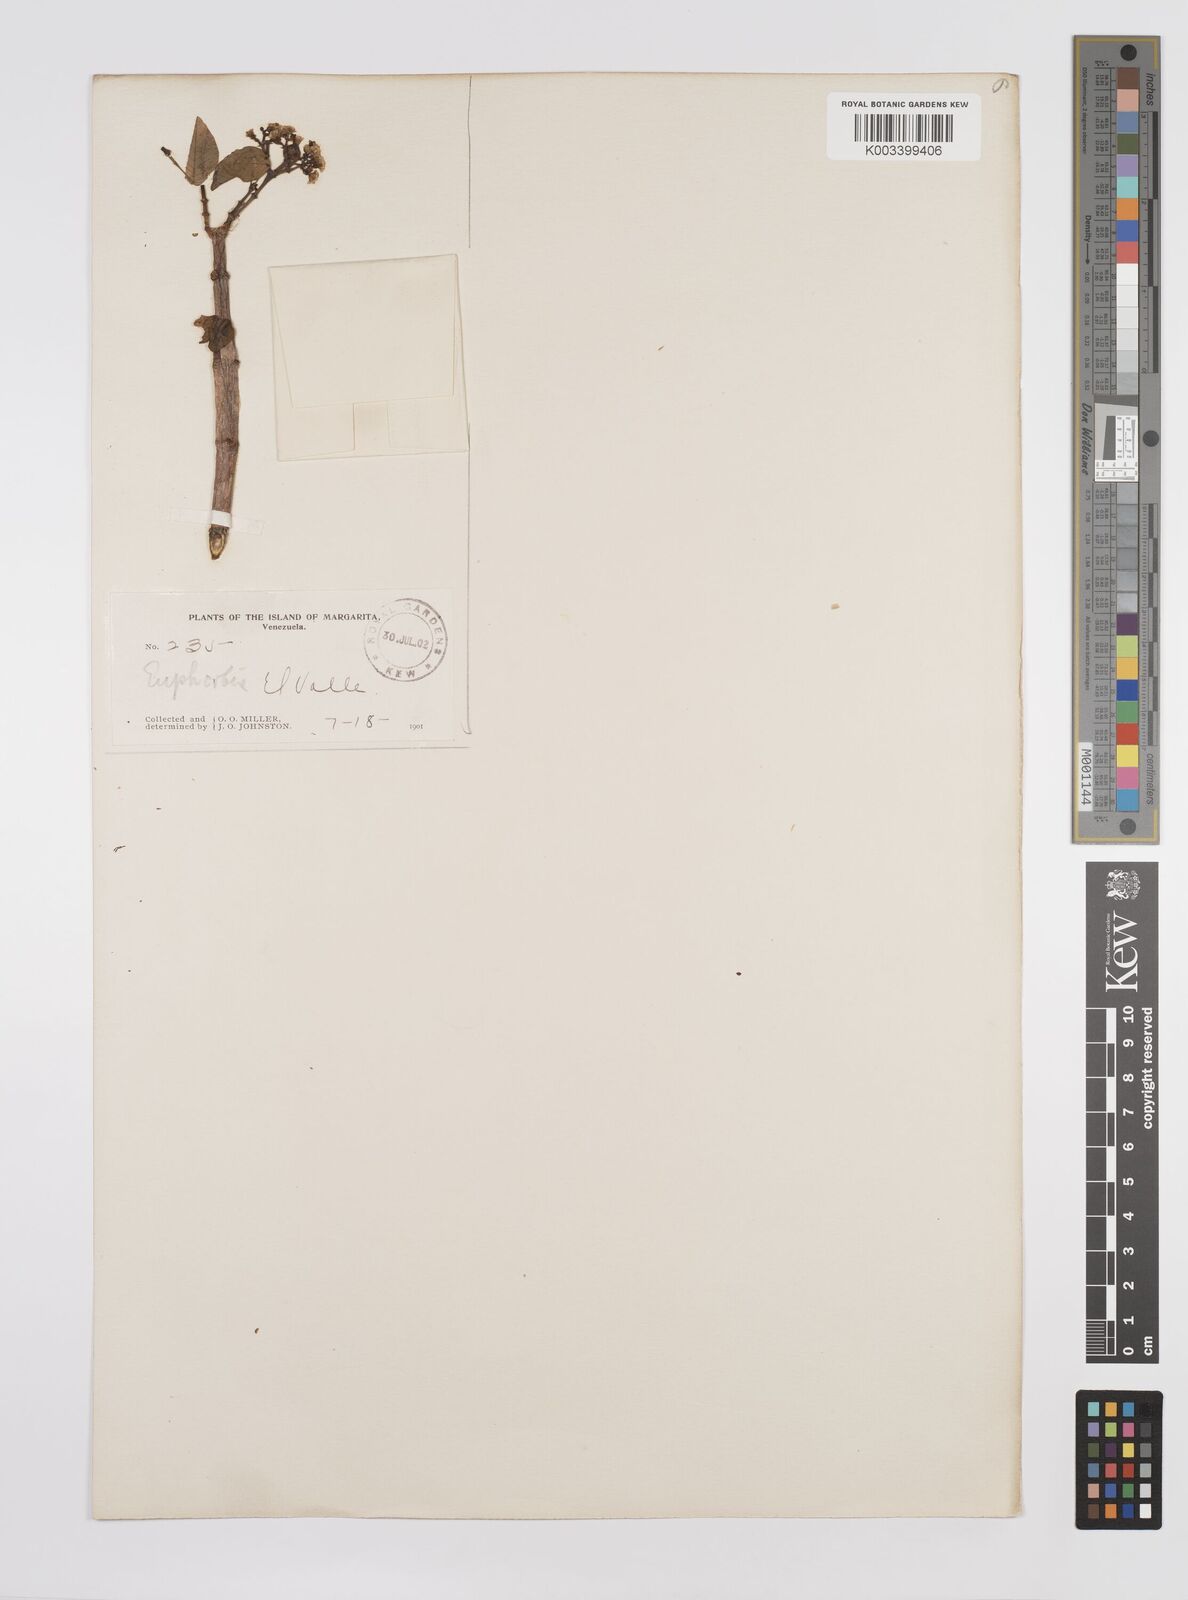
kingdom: Plantae
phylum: Tracheophyta
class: Magnoliopsida
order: Malpighiales
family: Euphorbiaceae
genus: Euphorbia
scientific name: Euphorbia
